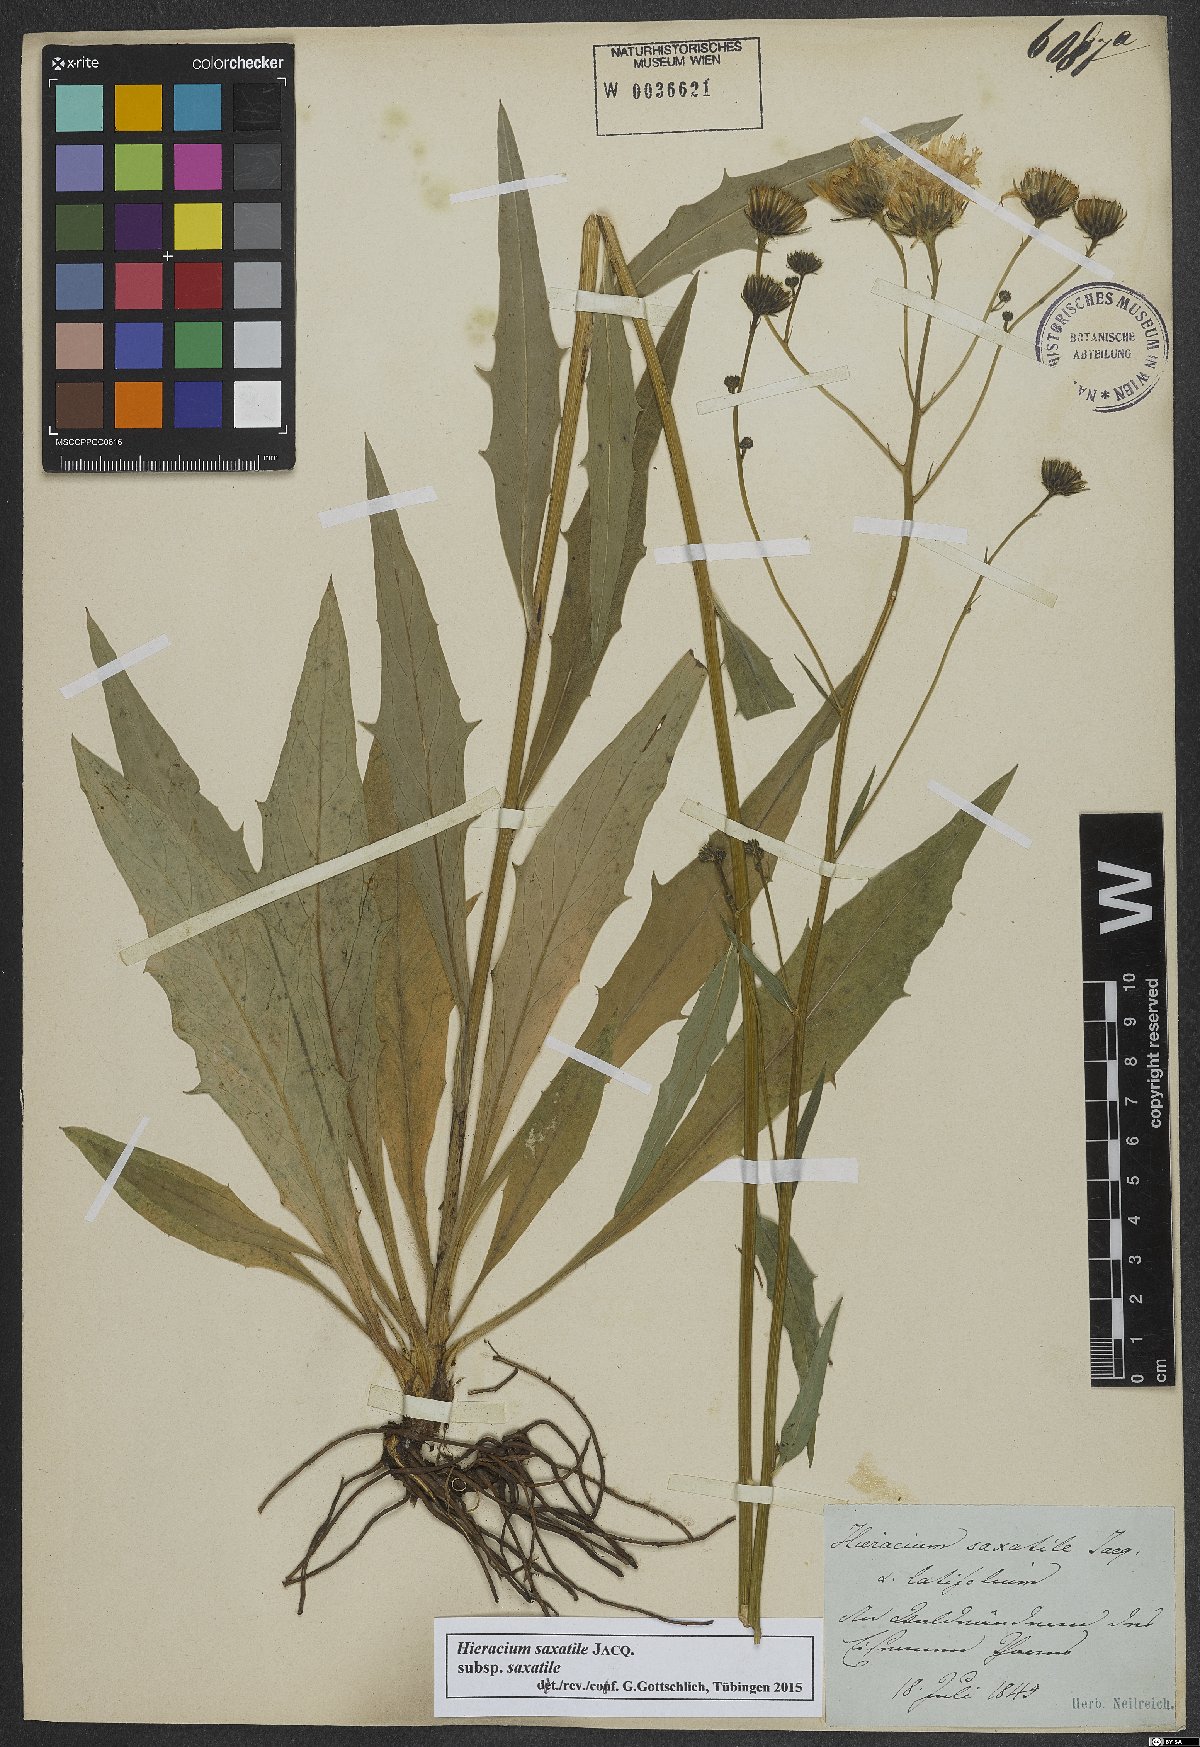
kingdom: Plantae
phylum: Tracheophyta
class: Magnoliopsida
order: Asterales
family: Asteraceae
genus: Hieracium
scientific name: Hieracium saxatile
